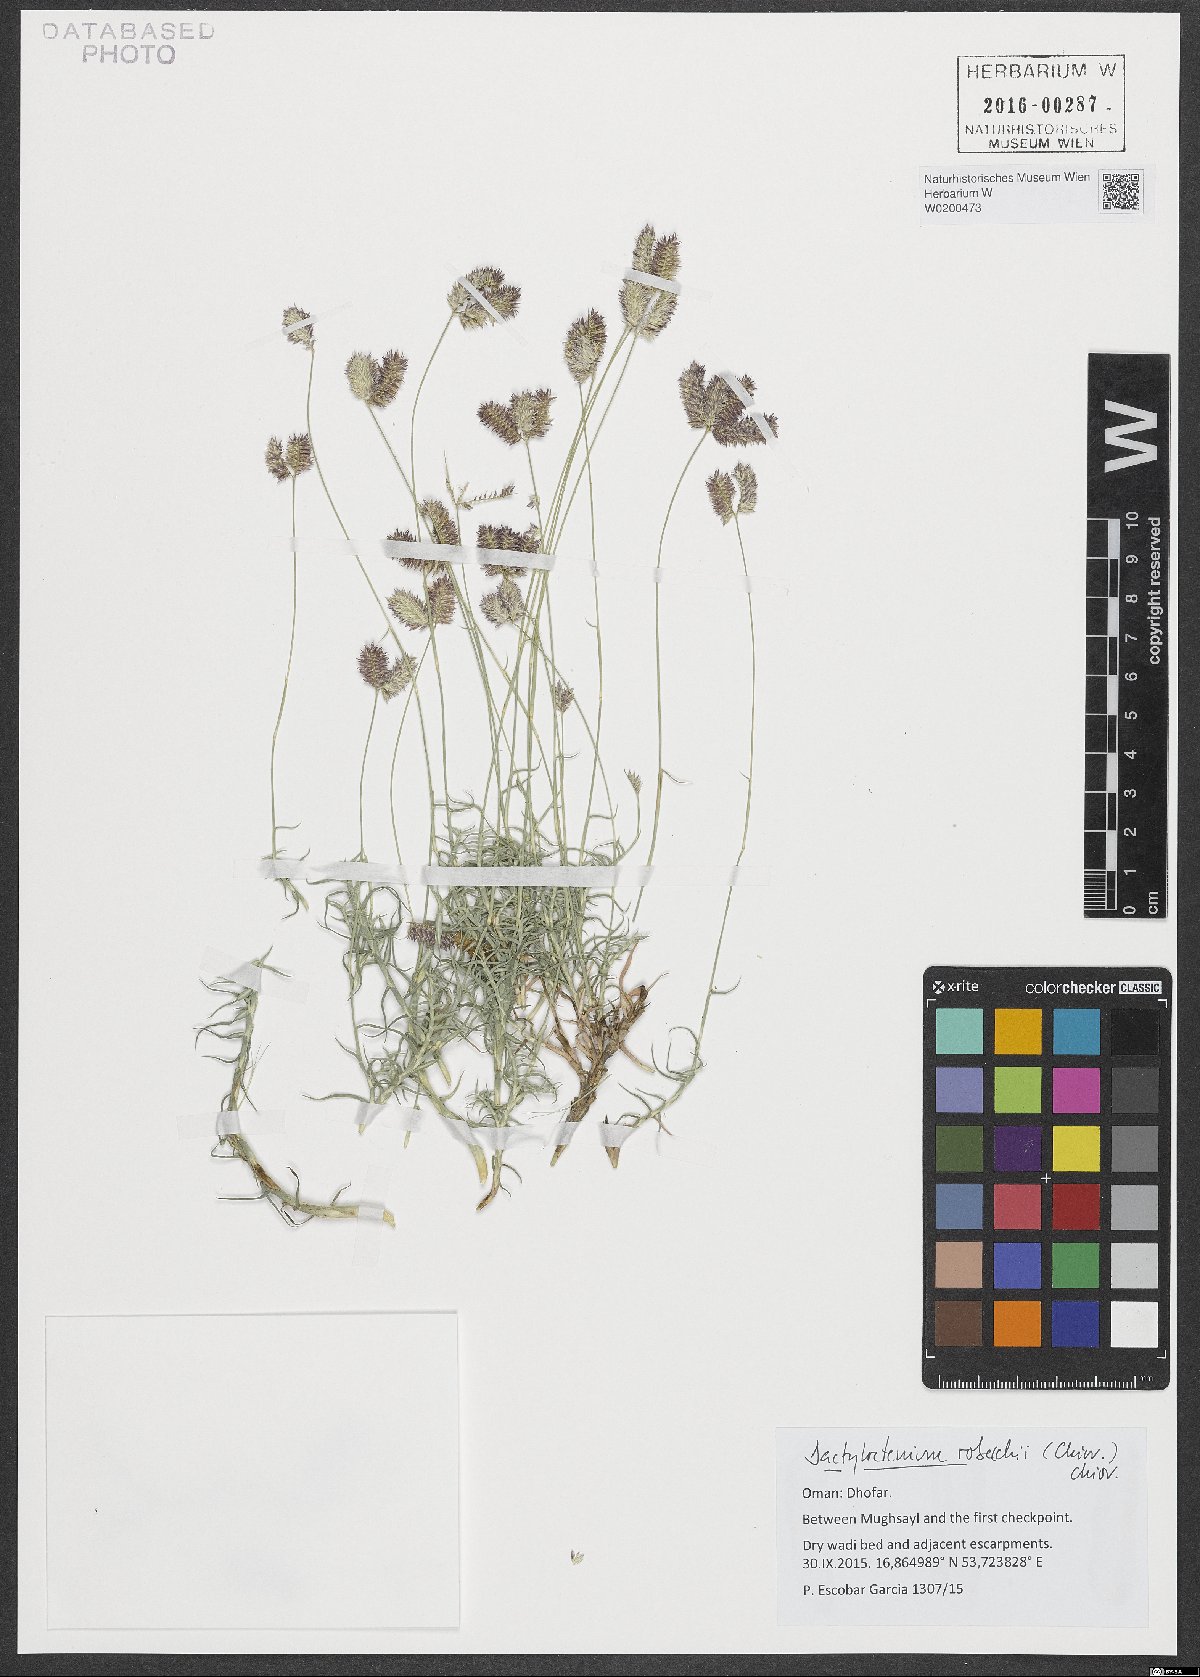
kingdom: Plantae
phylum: Tracheophyta
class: Liliopsida
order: Poales
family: Poaceae
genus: Dactyloctenium
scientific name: Dactyloctenium robecchii
